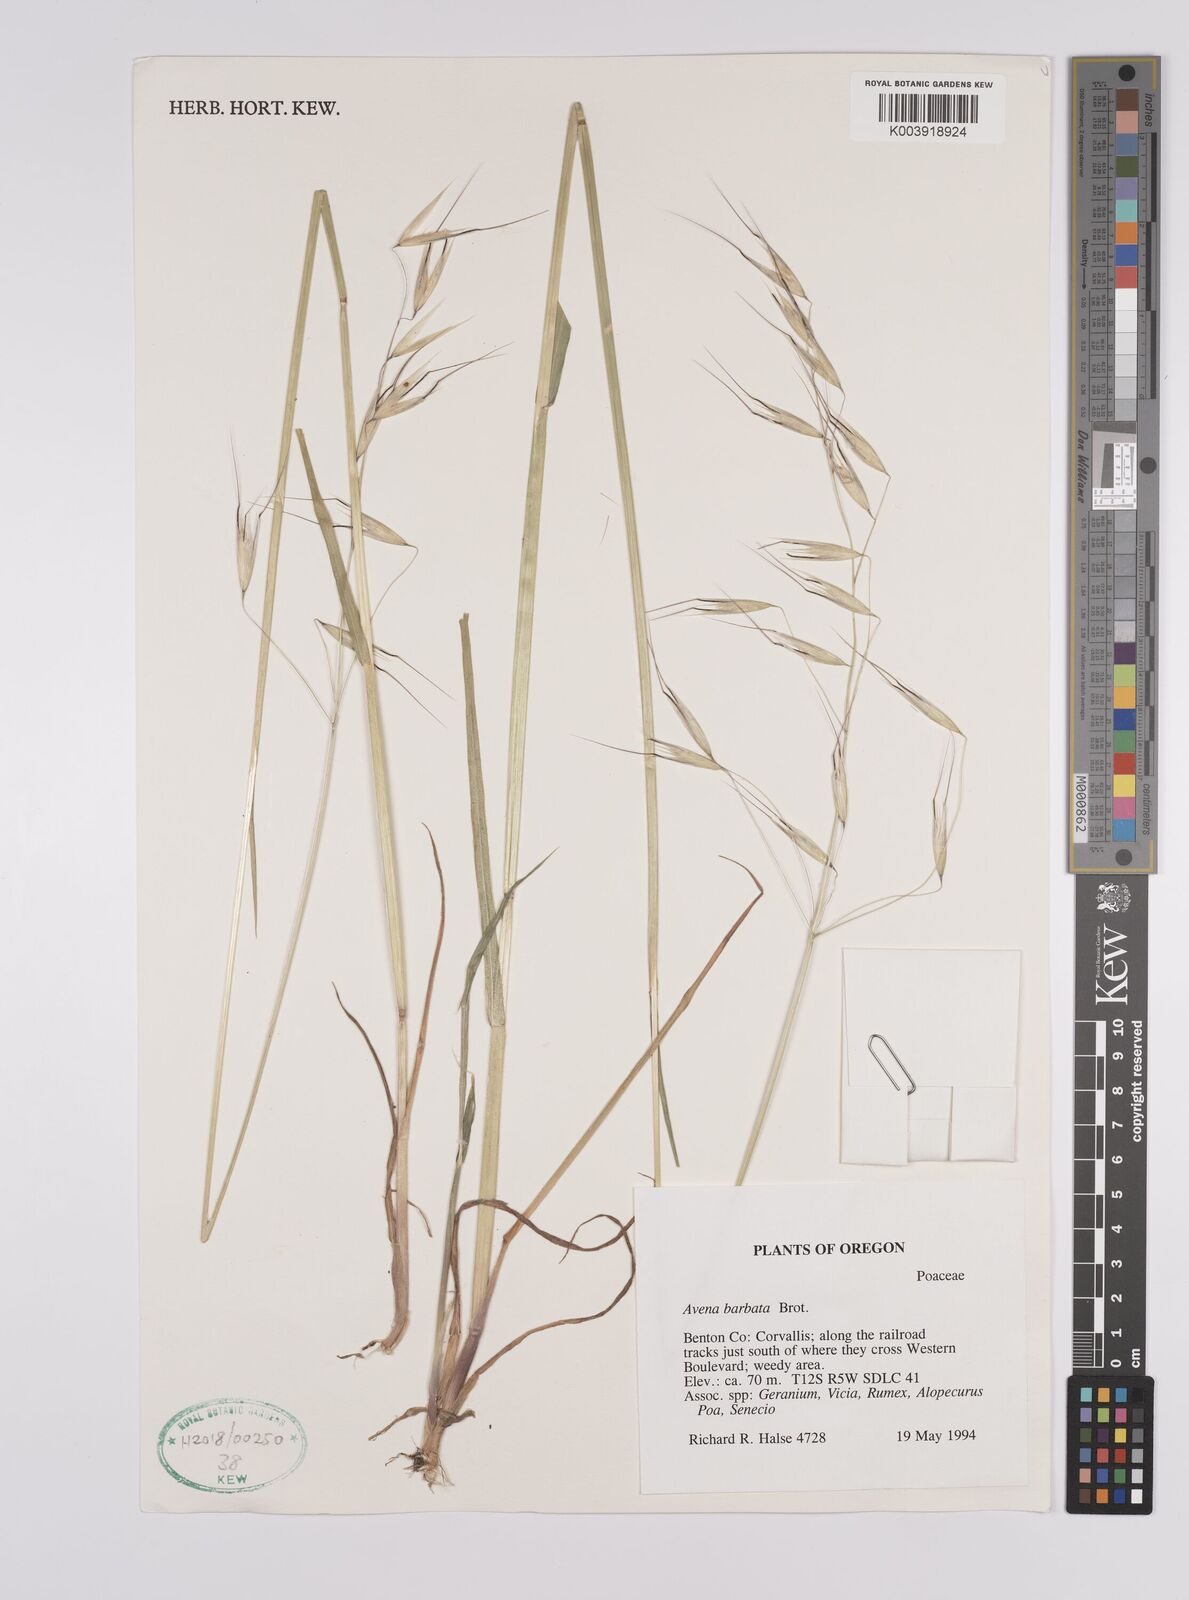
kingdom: Plantae
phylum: Tracheophyta
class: Liliopsida
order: Poales
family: Poaceae
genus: Avena
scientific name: Avena
